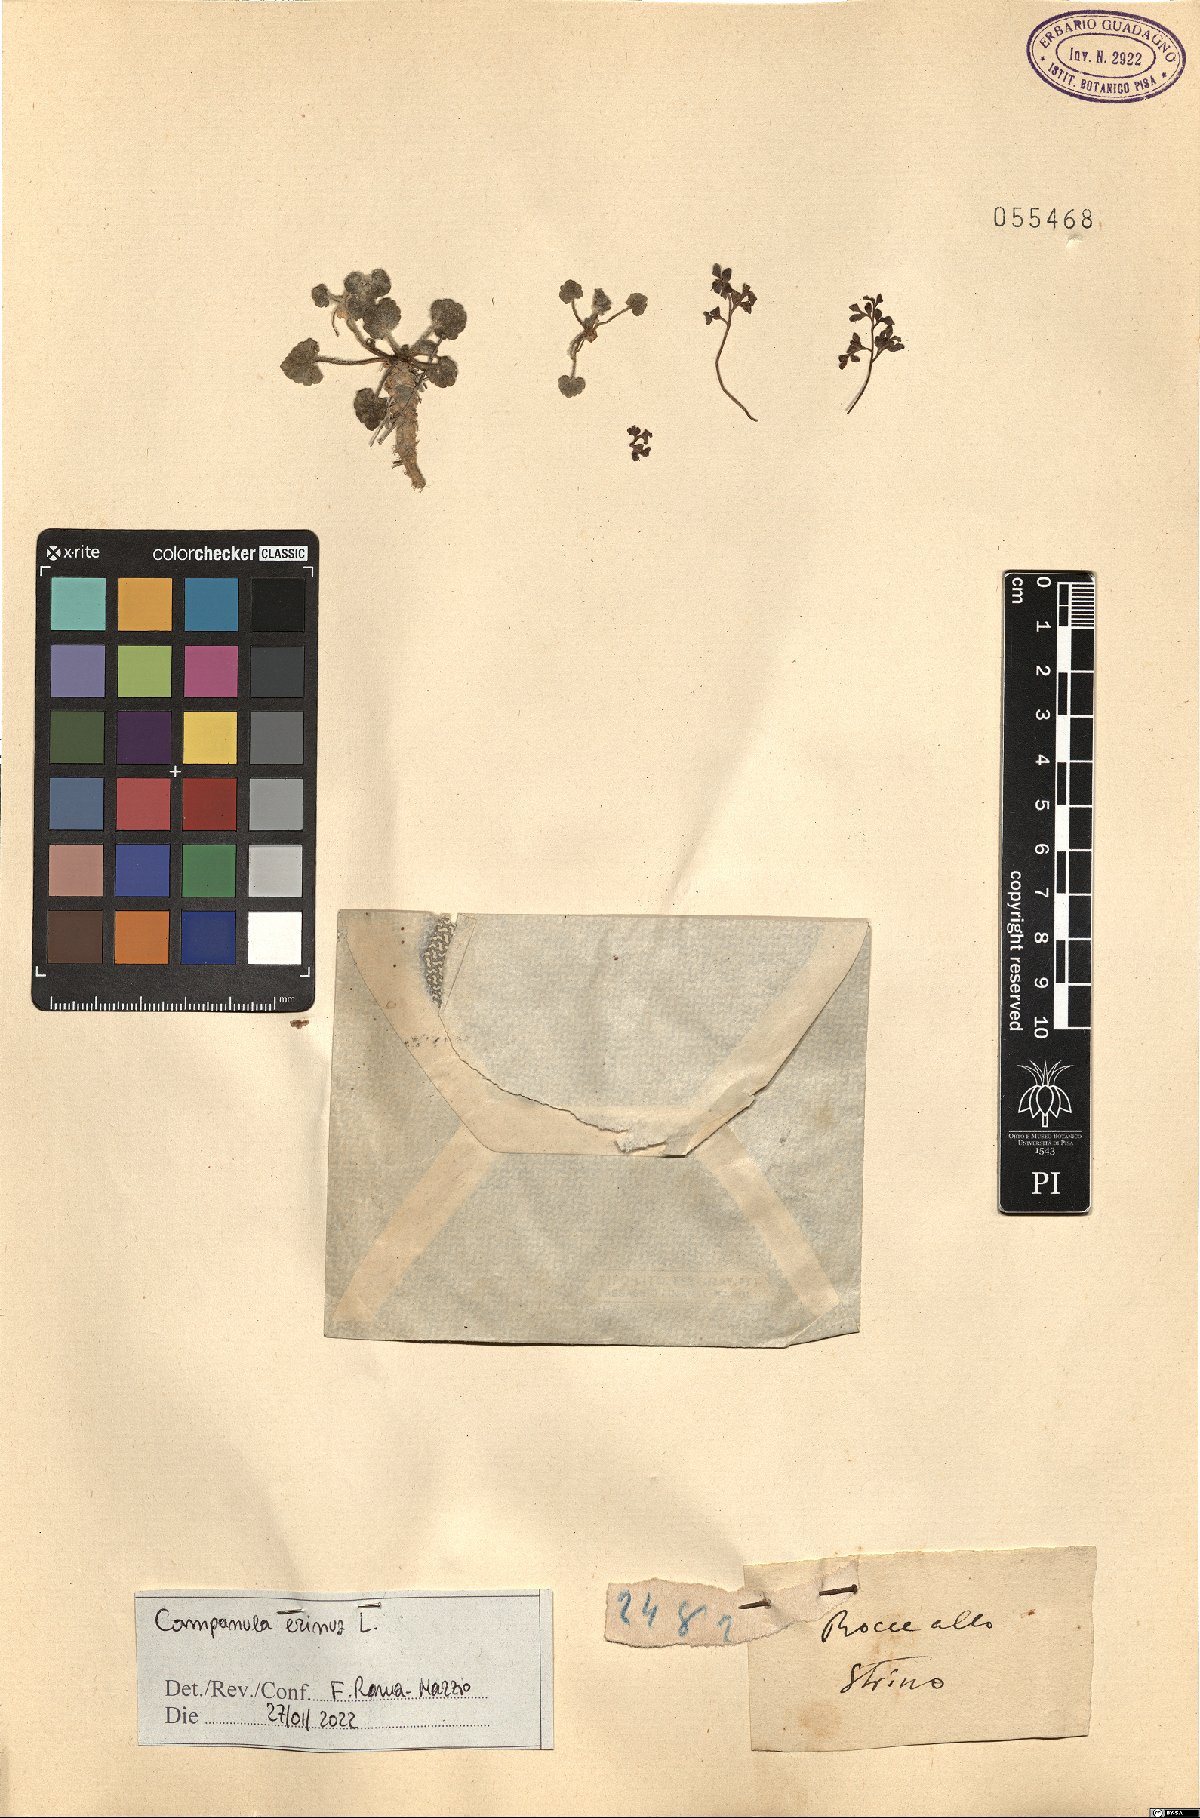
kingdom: Plantae
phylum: Tracheophyta
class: Magnoliopsida
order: Asterales
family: Campanulaceae
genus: Campanula
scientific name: Campanula erinus
